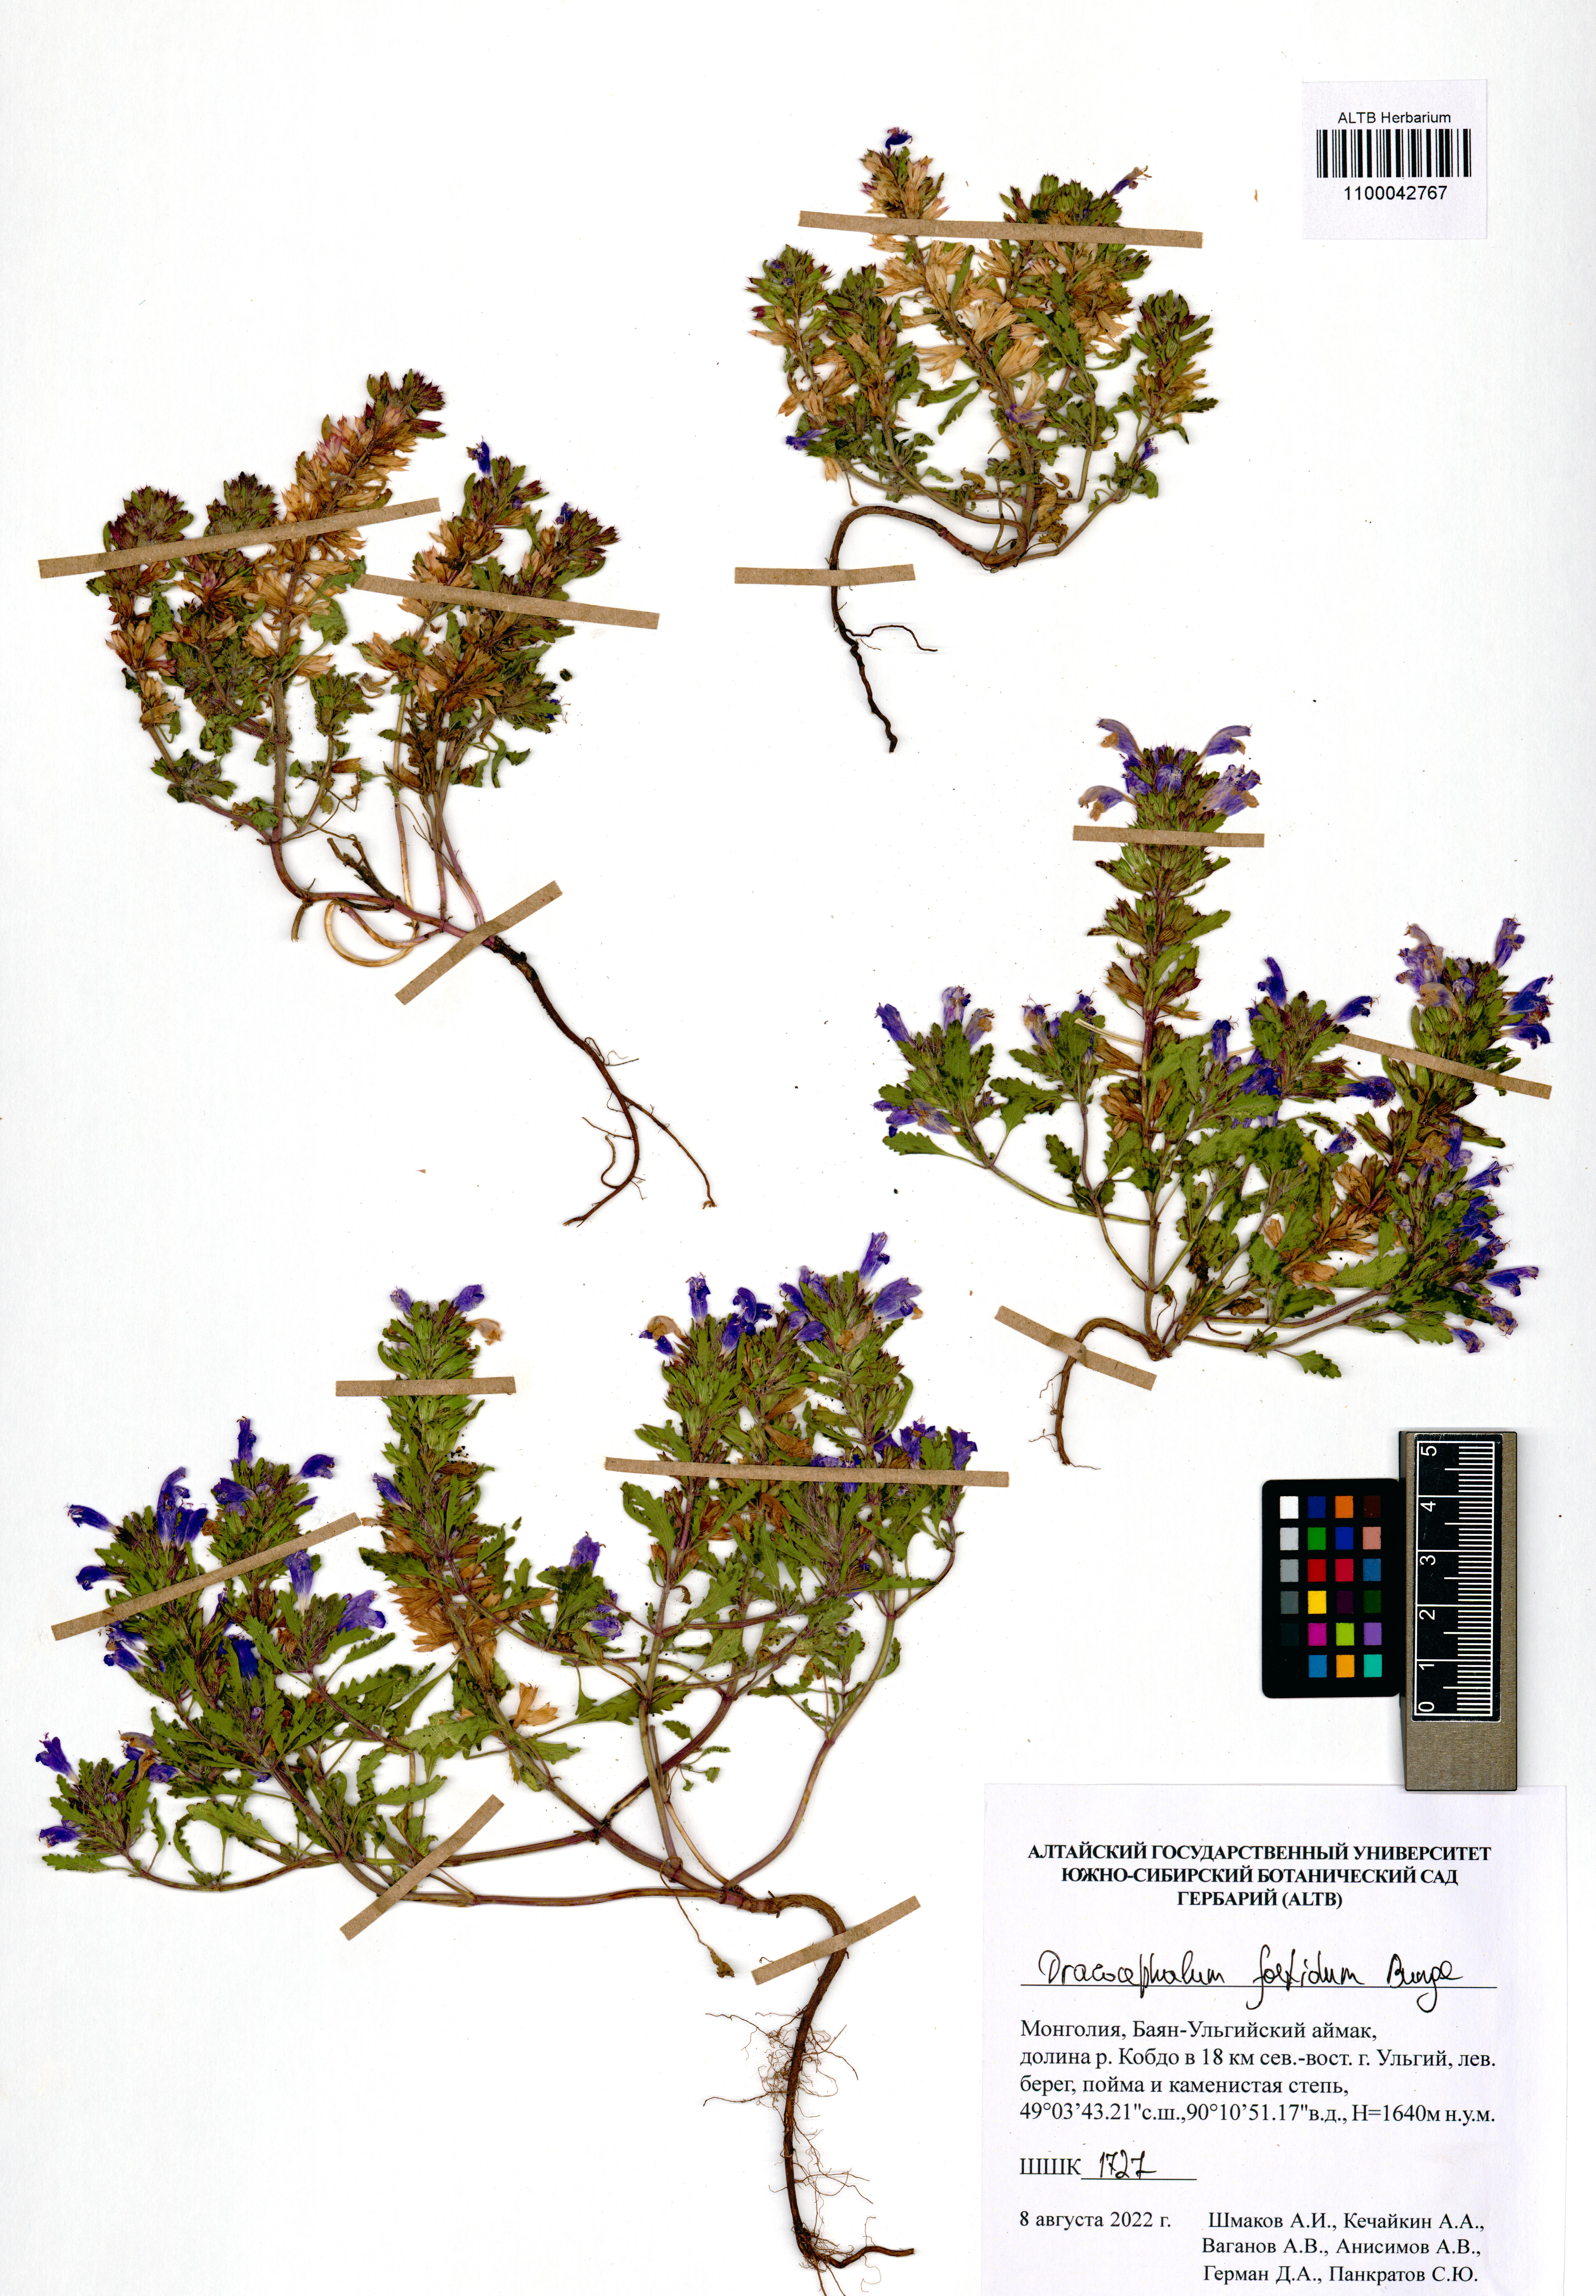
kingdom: Plantae
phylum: Tracheophyta
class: Magnoliopsida
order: Lamiales
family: Lamiaceae
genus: Dracocephalum
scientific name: Dracocephalum foetidum
